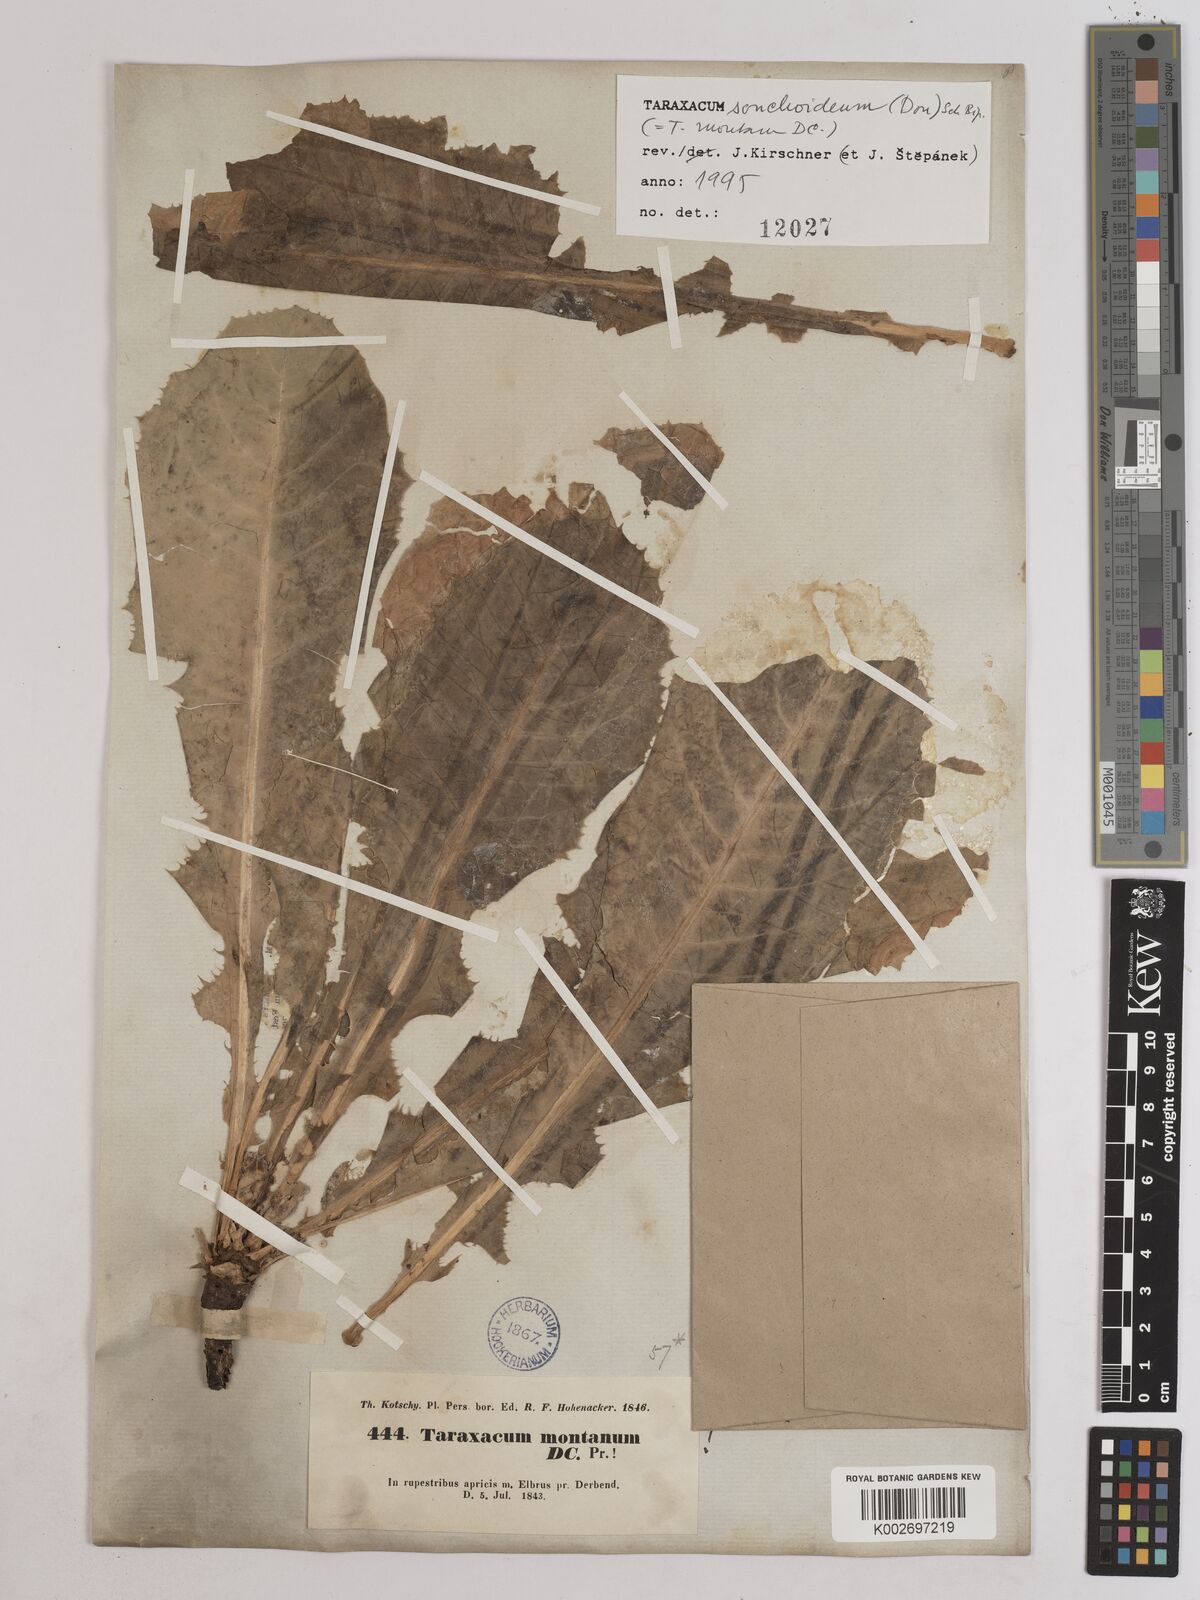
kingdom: Plantae
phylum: Tracheophyta
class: Magnoliopsida
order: Asterales
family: Asteraceae
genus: Taraxacum
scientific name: Taraxacum sonchoides
